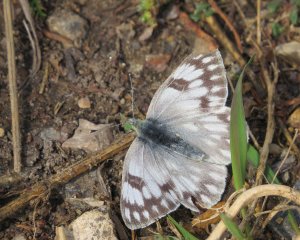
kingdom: Animalia
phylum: Arthropoda
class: Insecta
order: Lepidoptera
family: Pieridae
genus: Pontia
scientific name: Pontia protodice
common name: Checkered White
